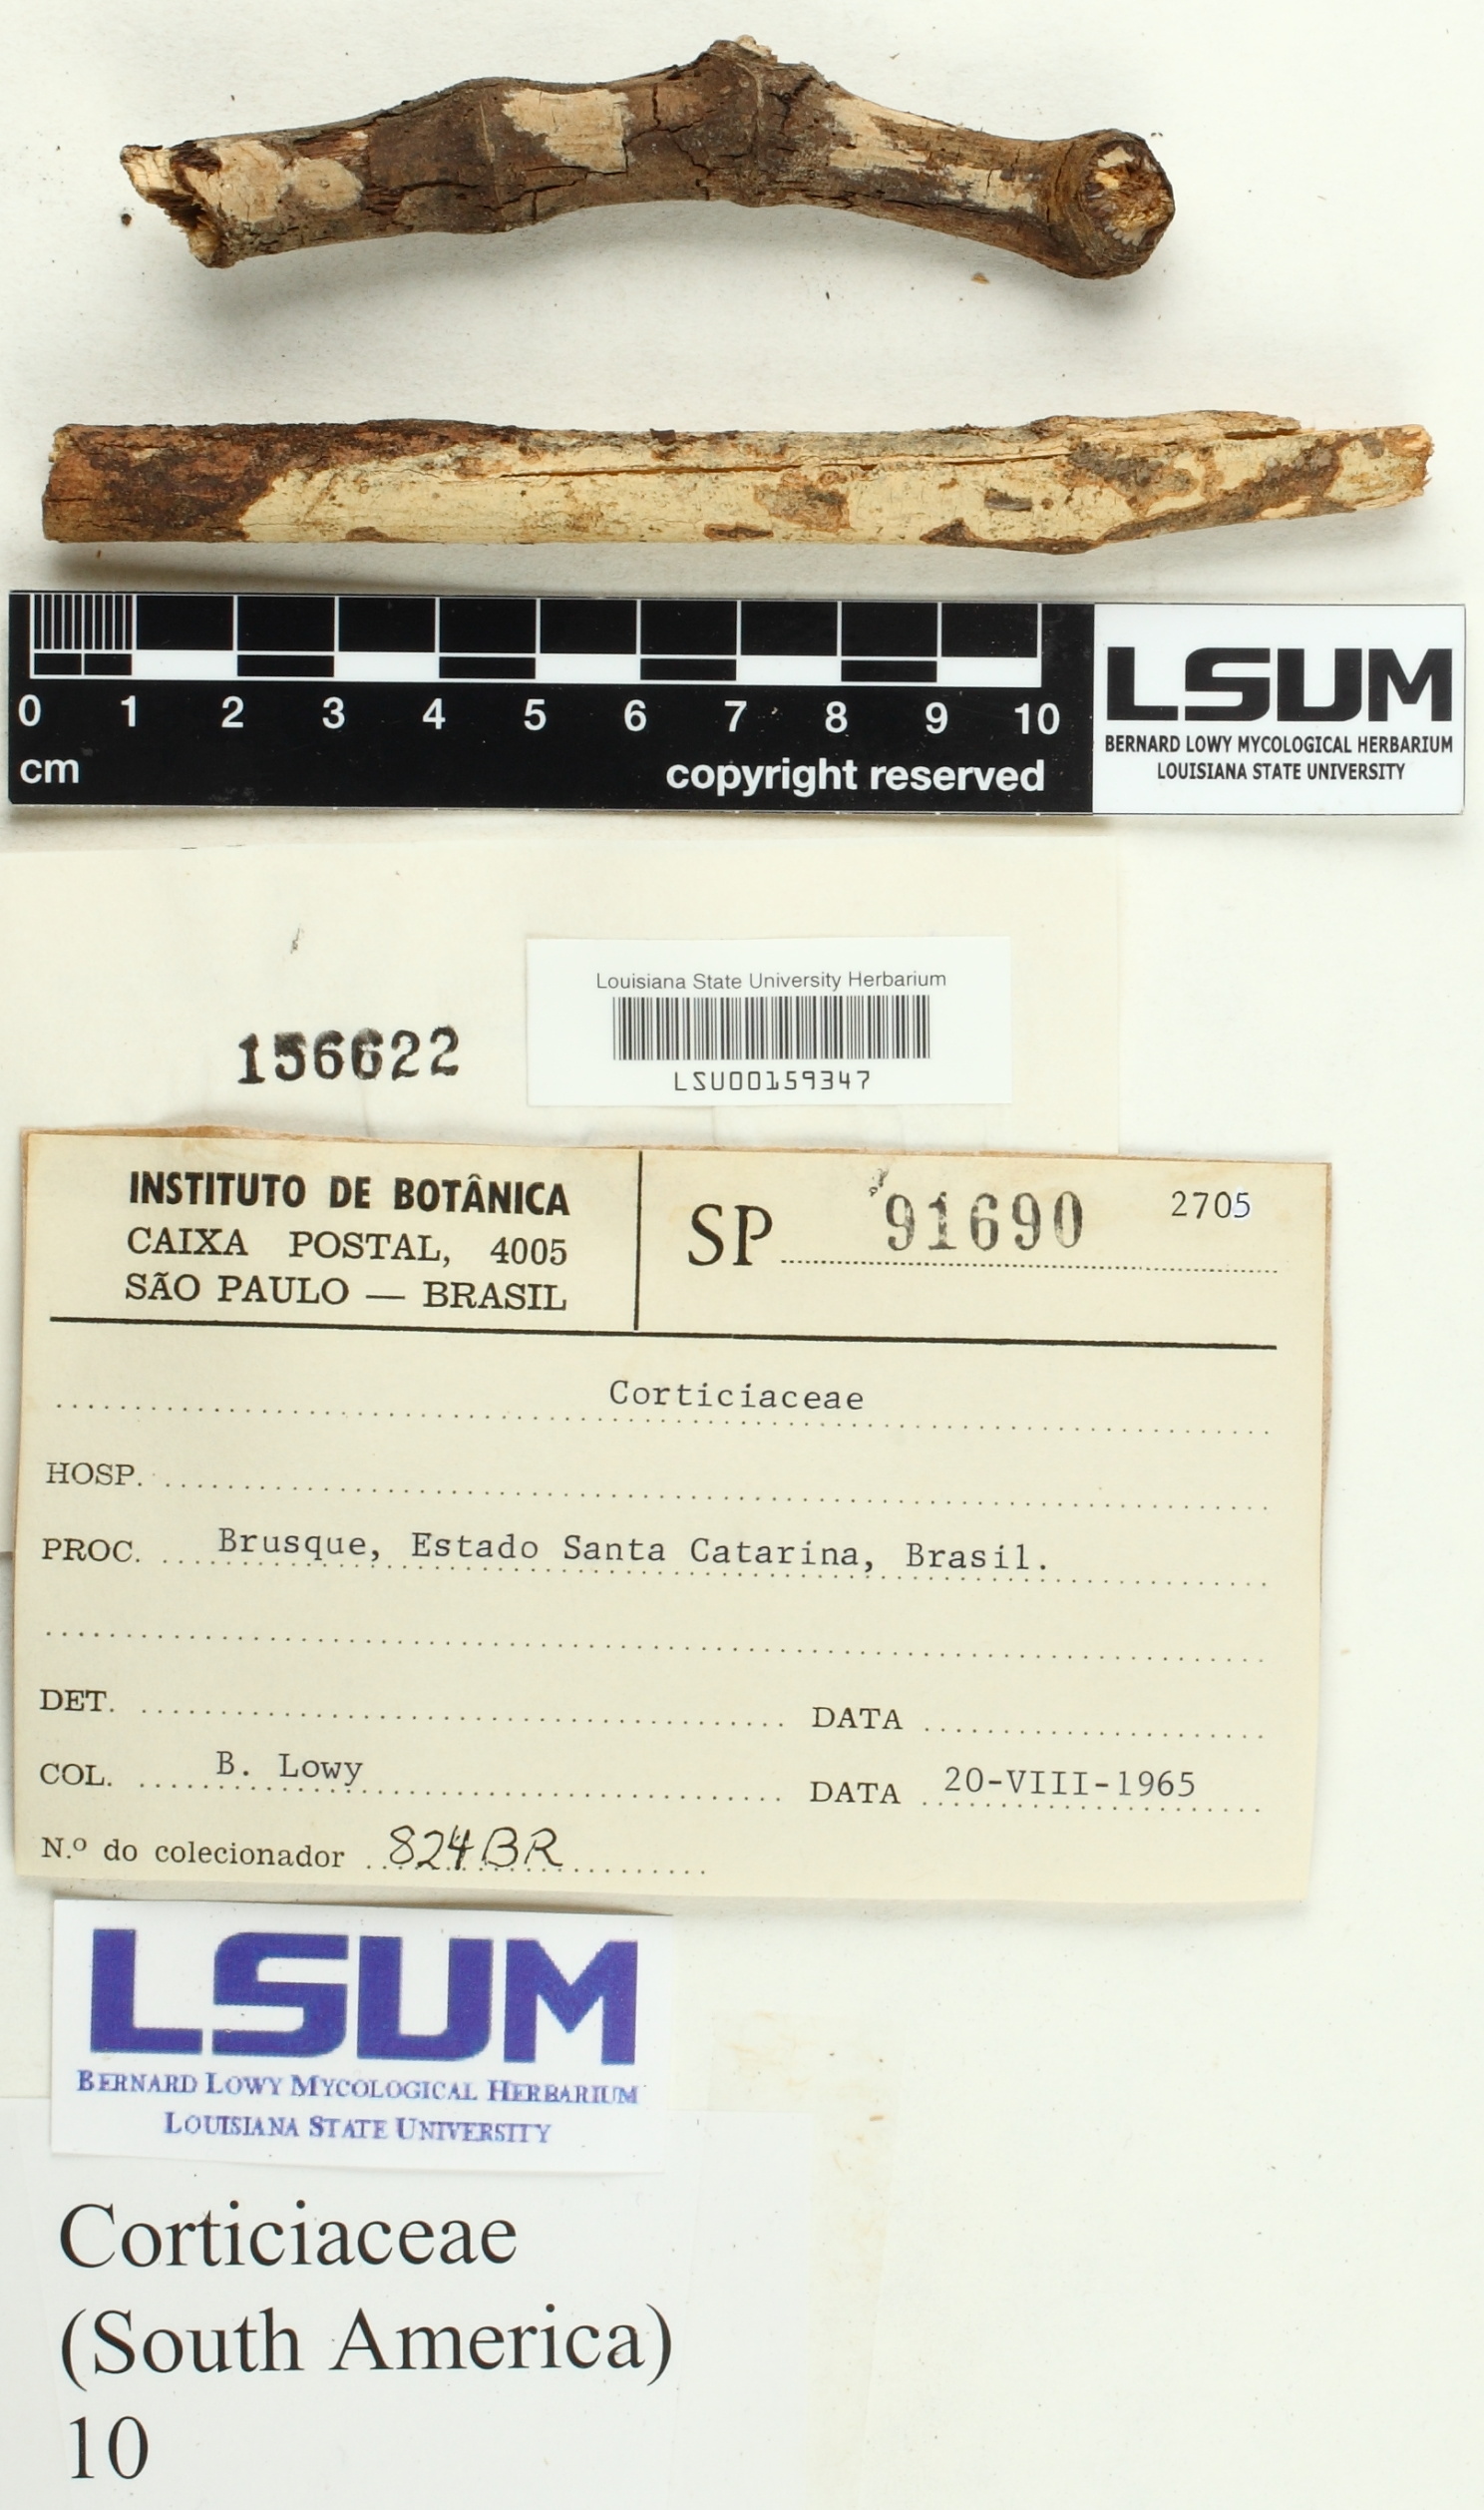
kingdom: Fungi
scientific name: Fungi
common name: Fungi
